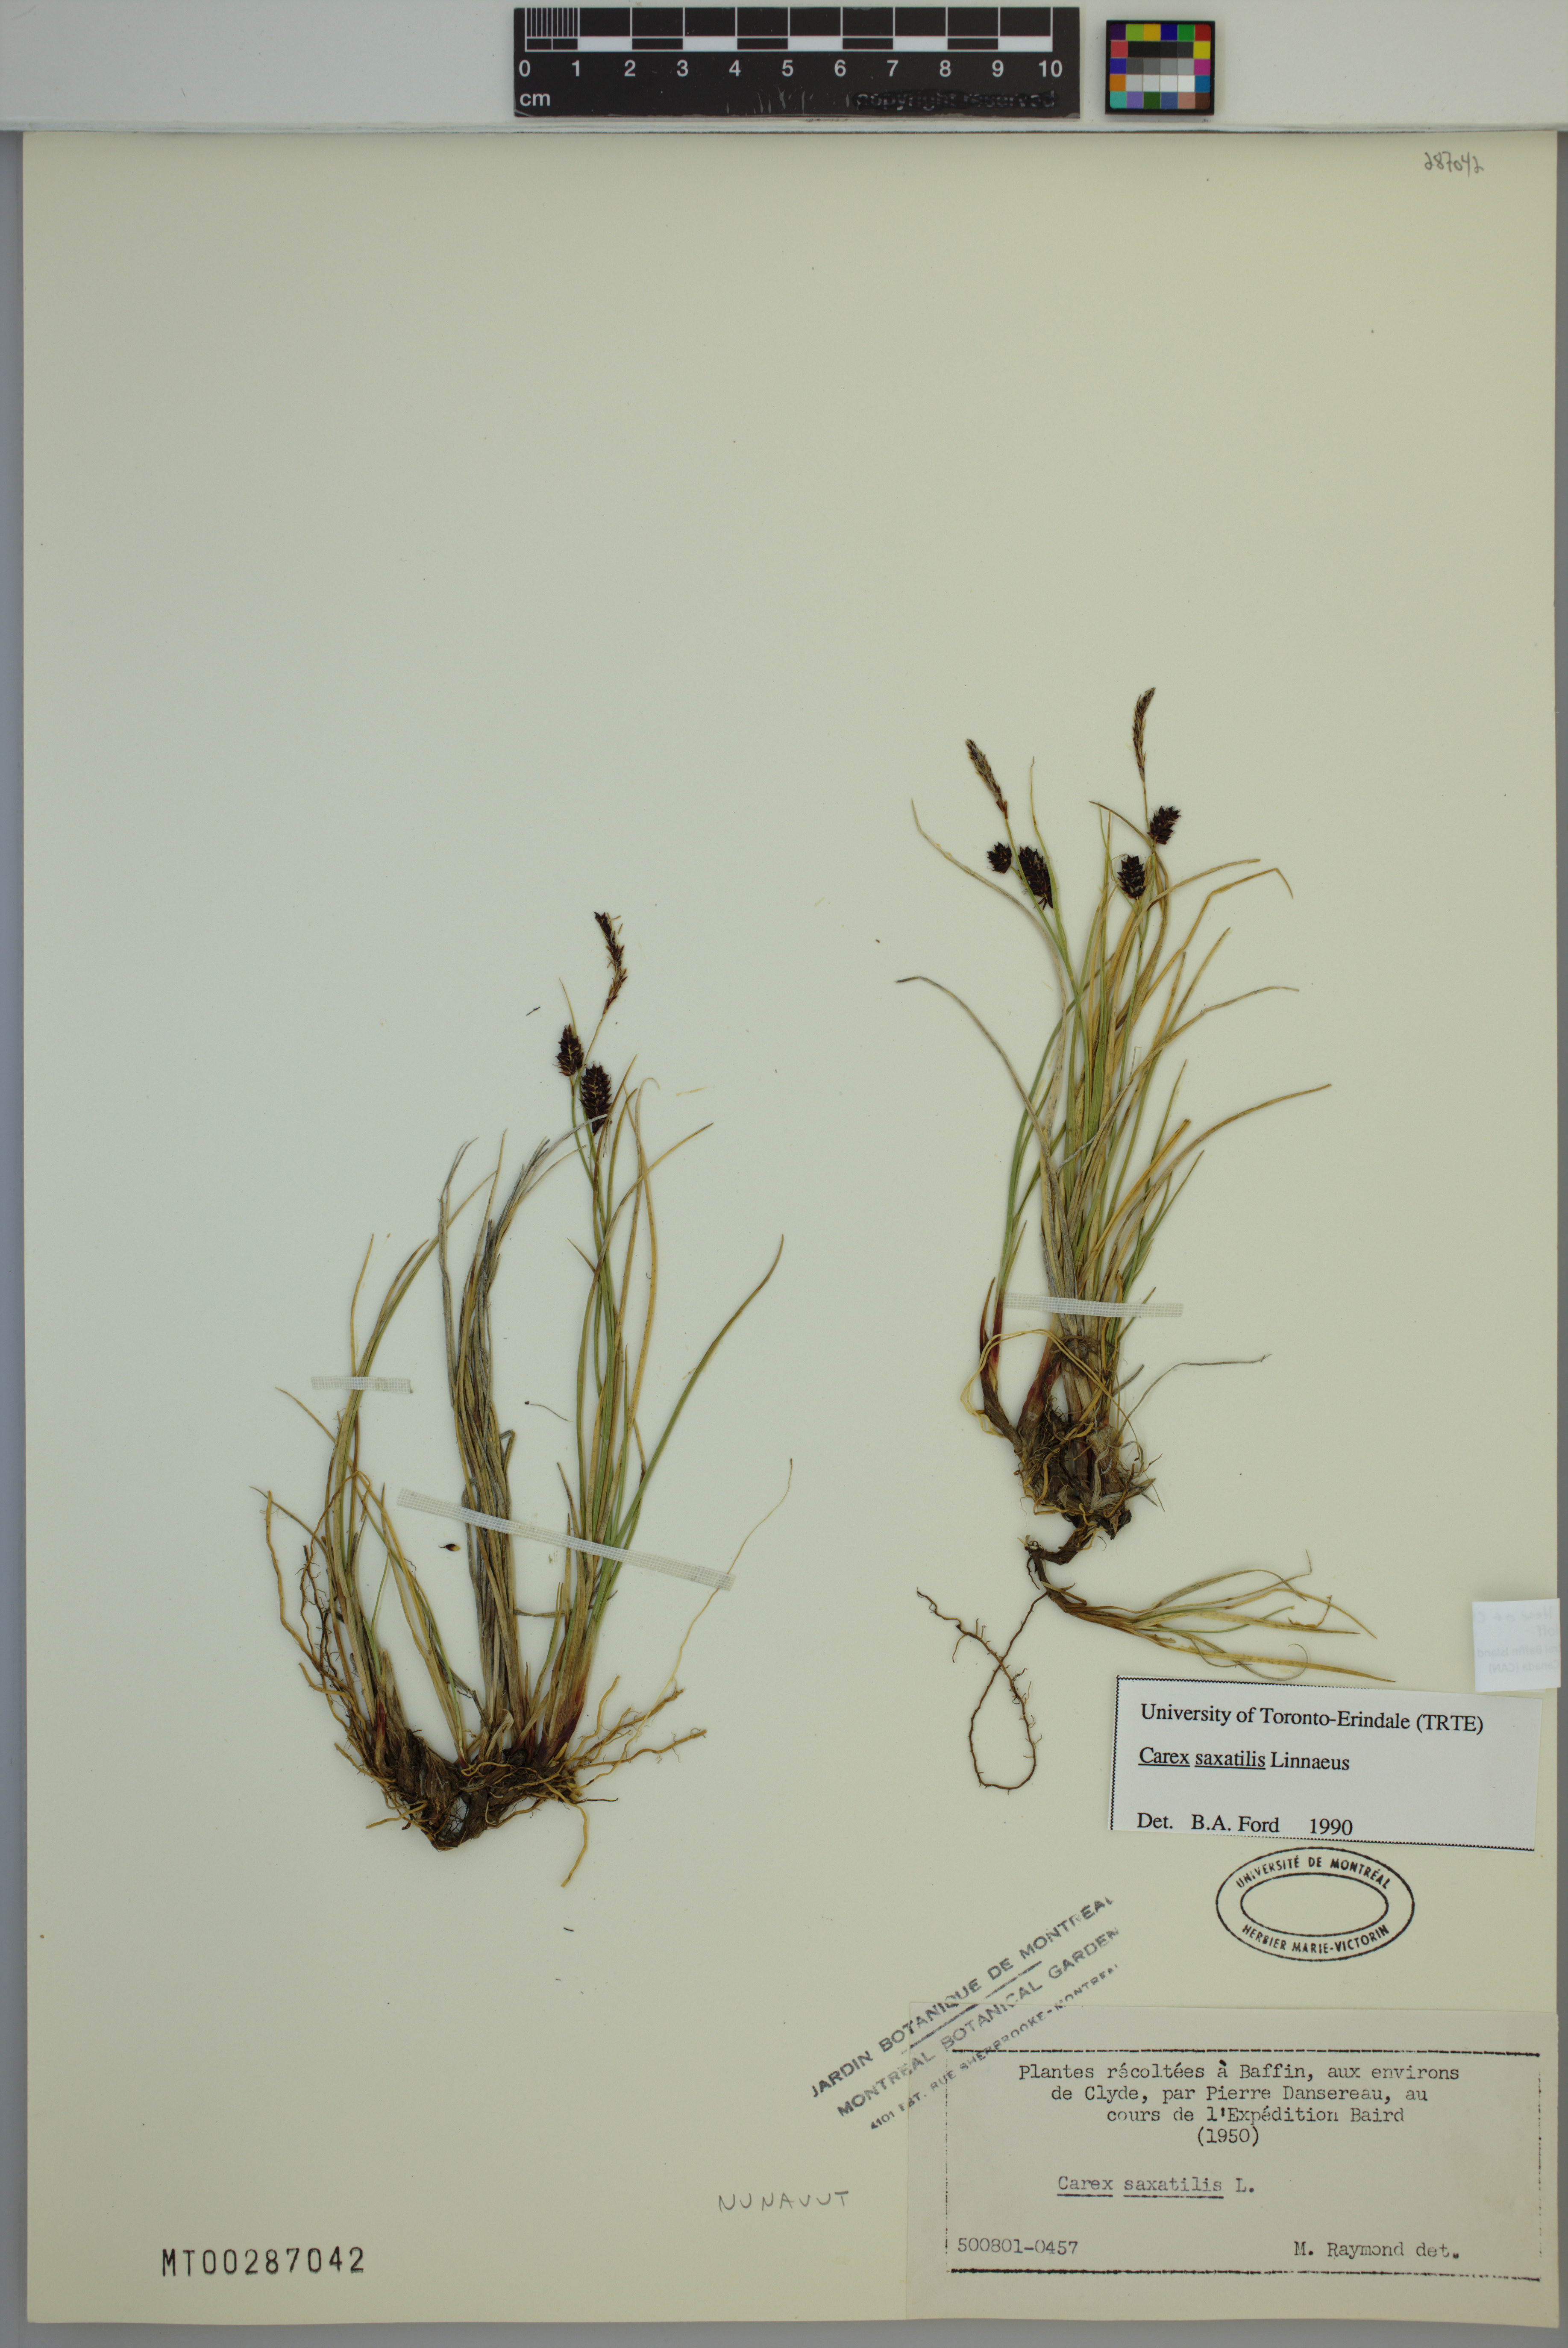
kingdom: Plantae
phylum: Tracheophyta
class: Liliopsida
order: Poales
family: Cyperaceae
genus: Carex
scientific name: Carex saxatilis
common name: Russet sedge
